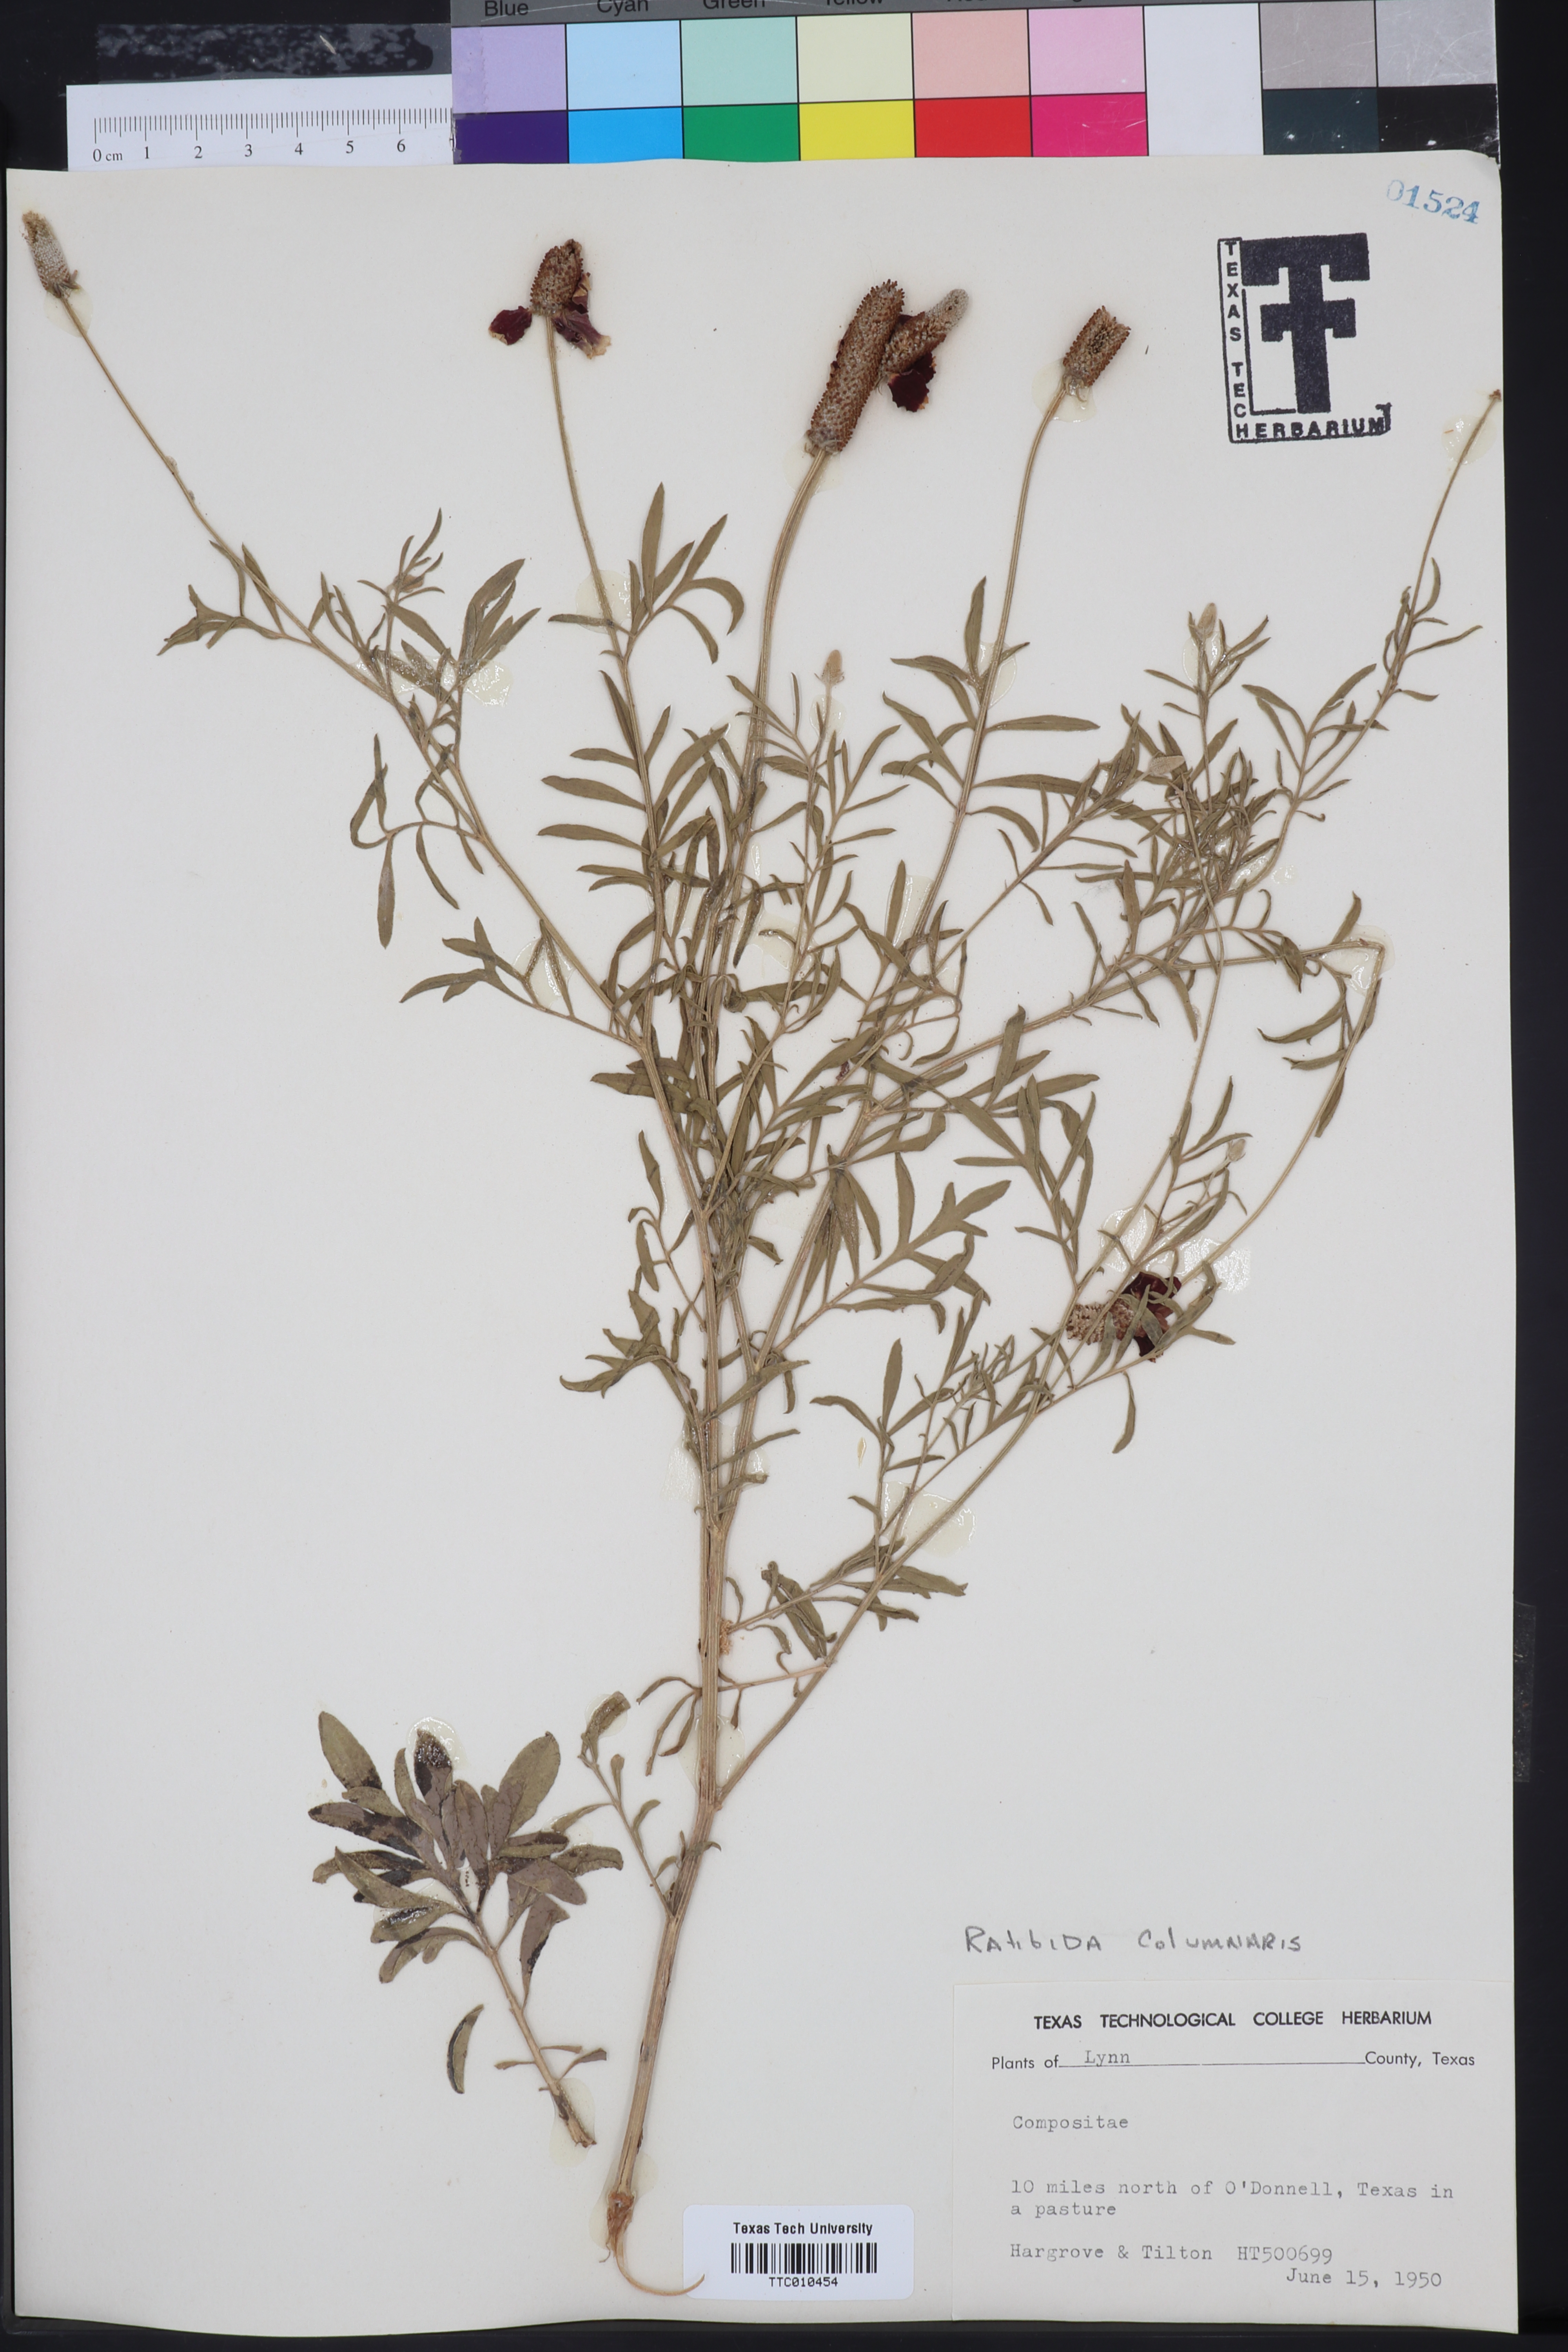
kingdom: Plantae
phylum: Tracheophyta
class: Magnoliopsida
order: Asterales
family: Asteraceae
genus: Ratibida
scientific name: Ratibida columnifera
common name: Prairie coneflower
